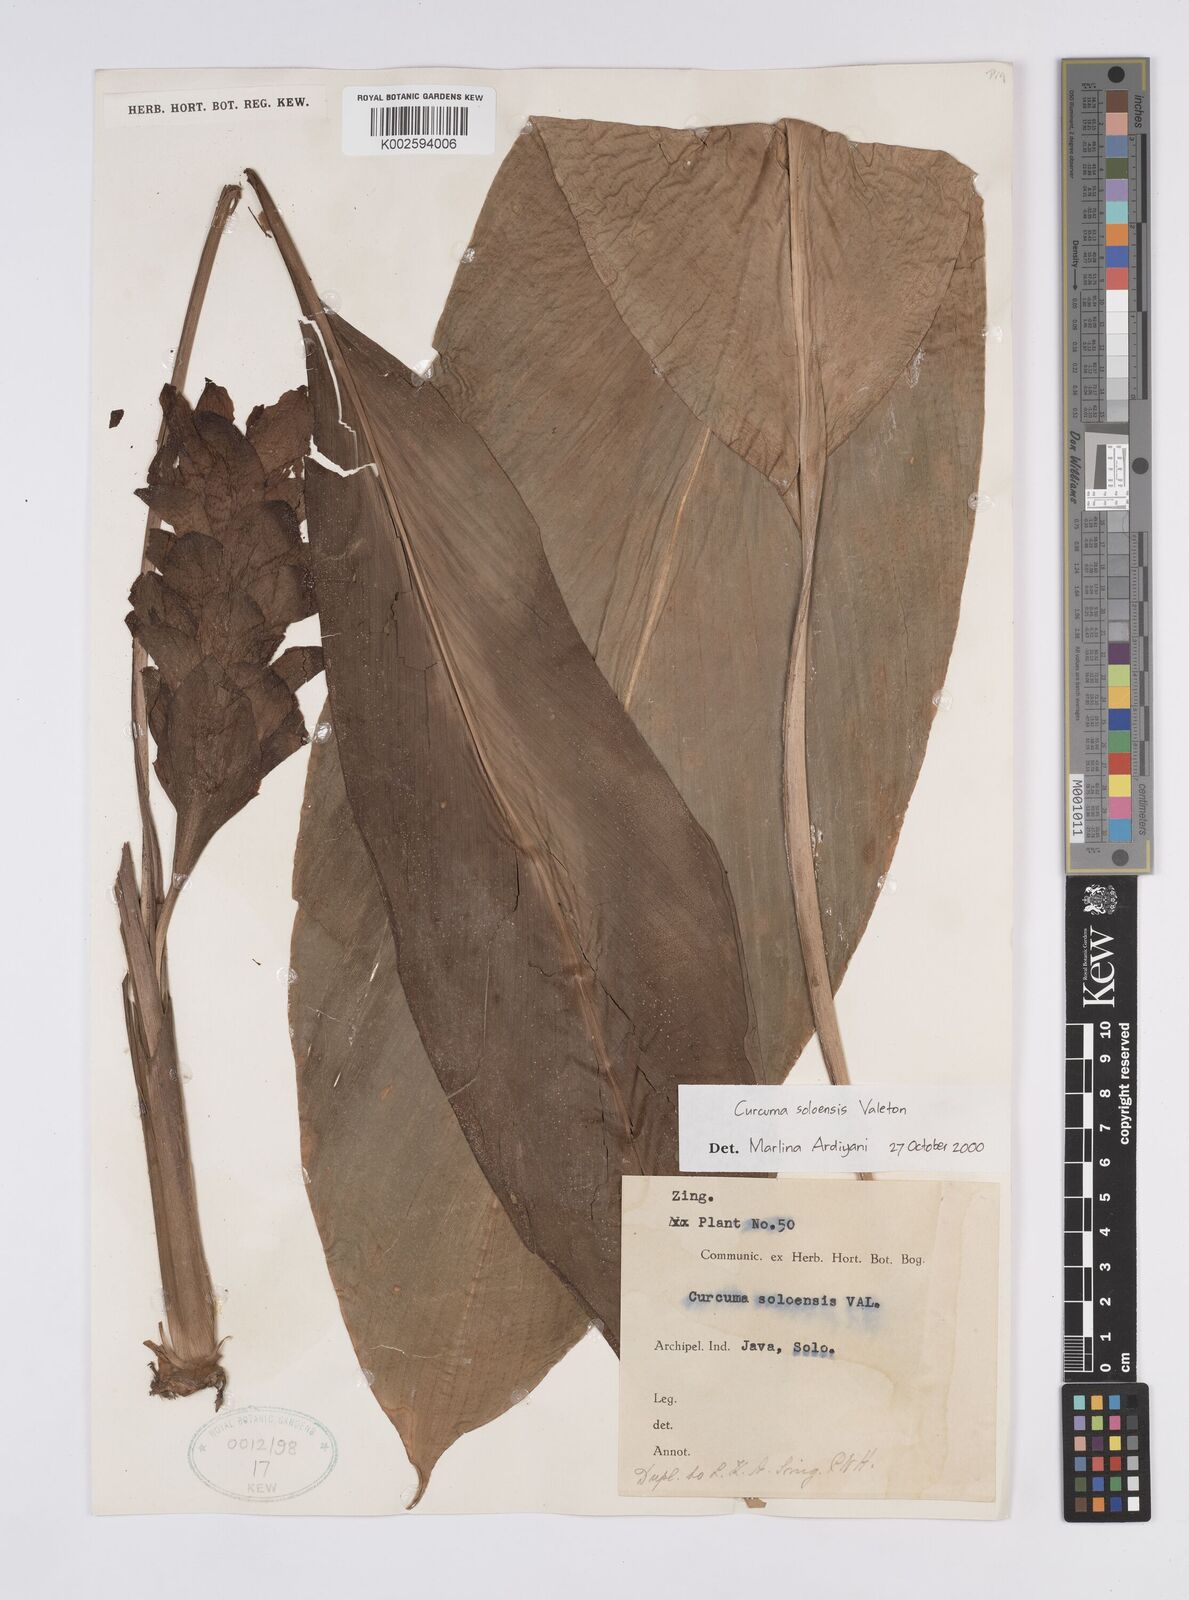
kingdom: Plantae
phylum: Tracheophyta
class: Liliopsida
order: Zingiberales
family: Zingiberaceae
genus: Curcuma
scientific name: Curcuma longa
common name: Turmeric
